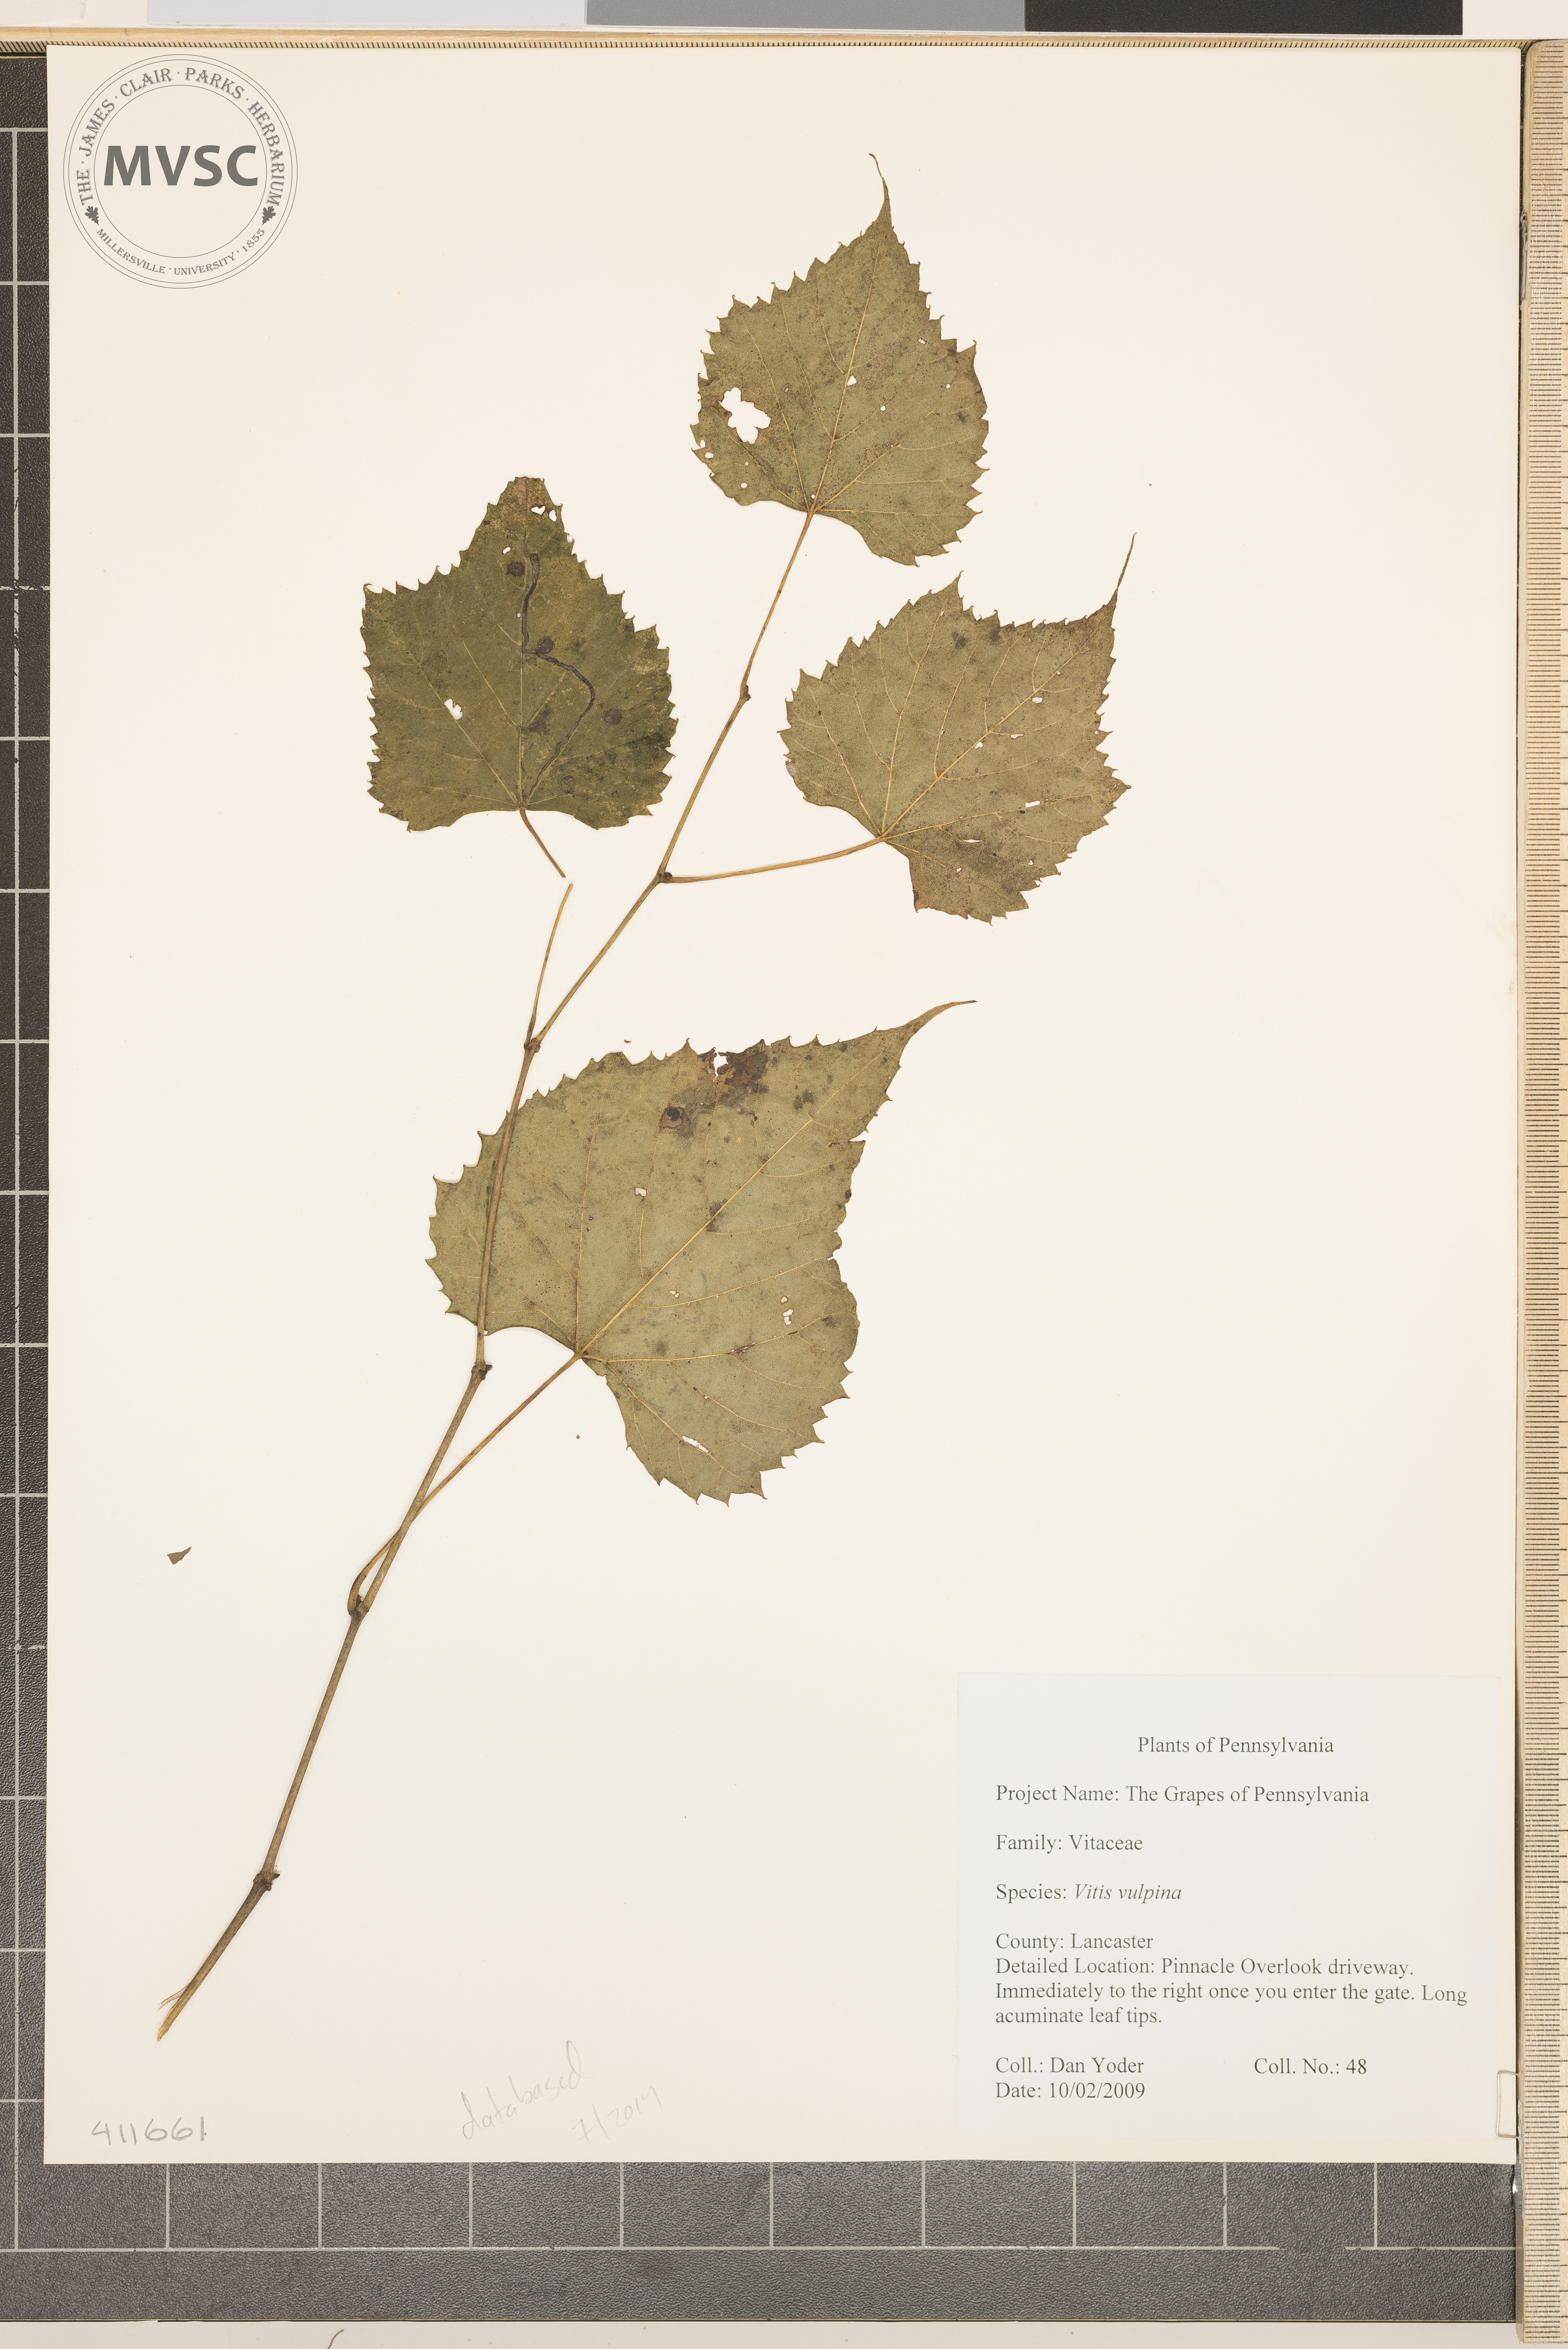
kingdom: Plantae
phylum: Tracheophyta
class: Magnoliopsida
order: Vitales
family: Vitaceae
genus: Vitis
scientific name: Vitis vulpina
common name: Frost Grape
